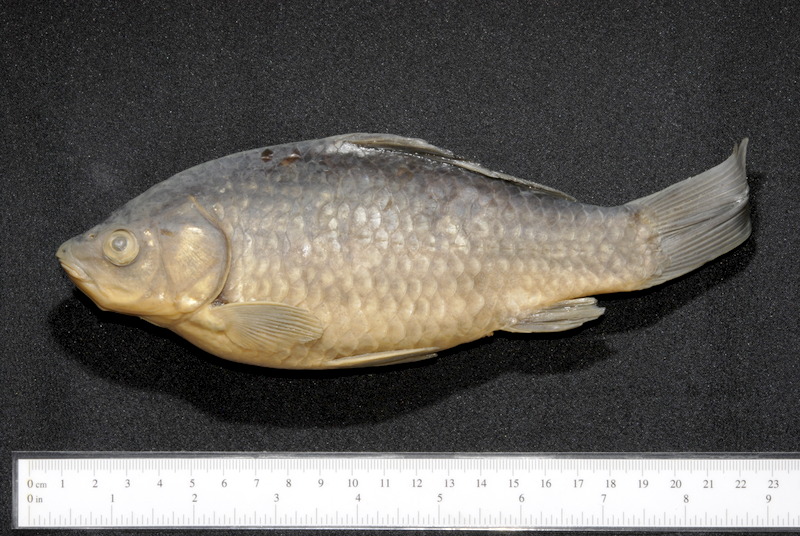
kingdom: Animalia
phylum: Chordata
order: Cypriniformes
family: Cyprinidae
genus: Carassius
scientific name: Carassius gibelio
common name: Prussian carp
